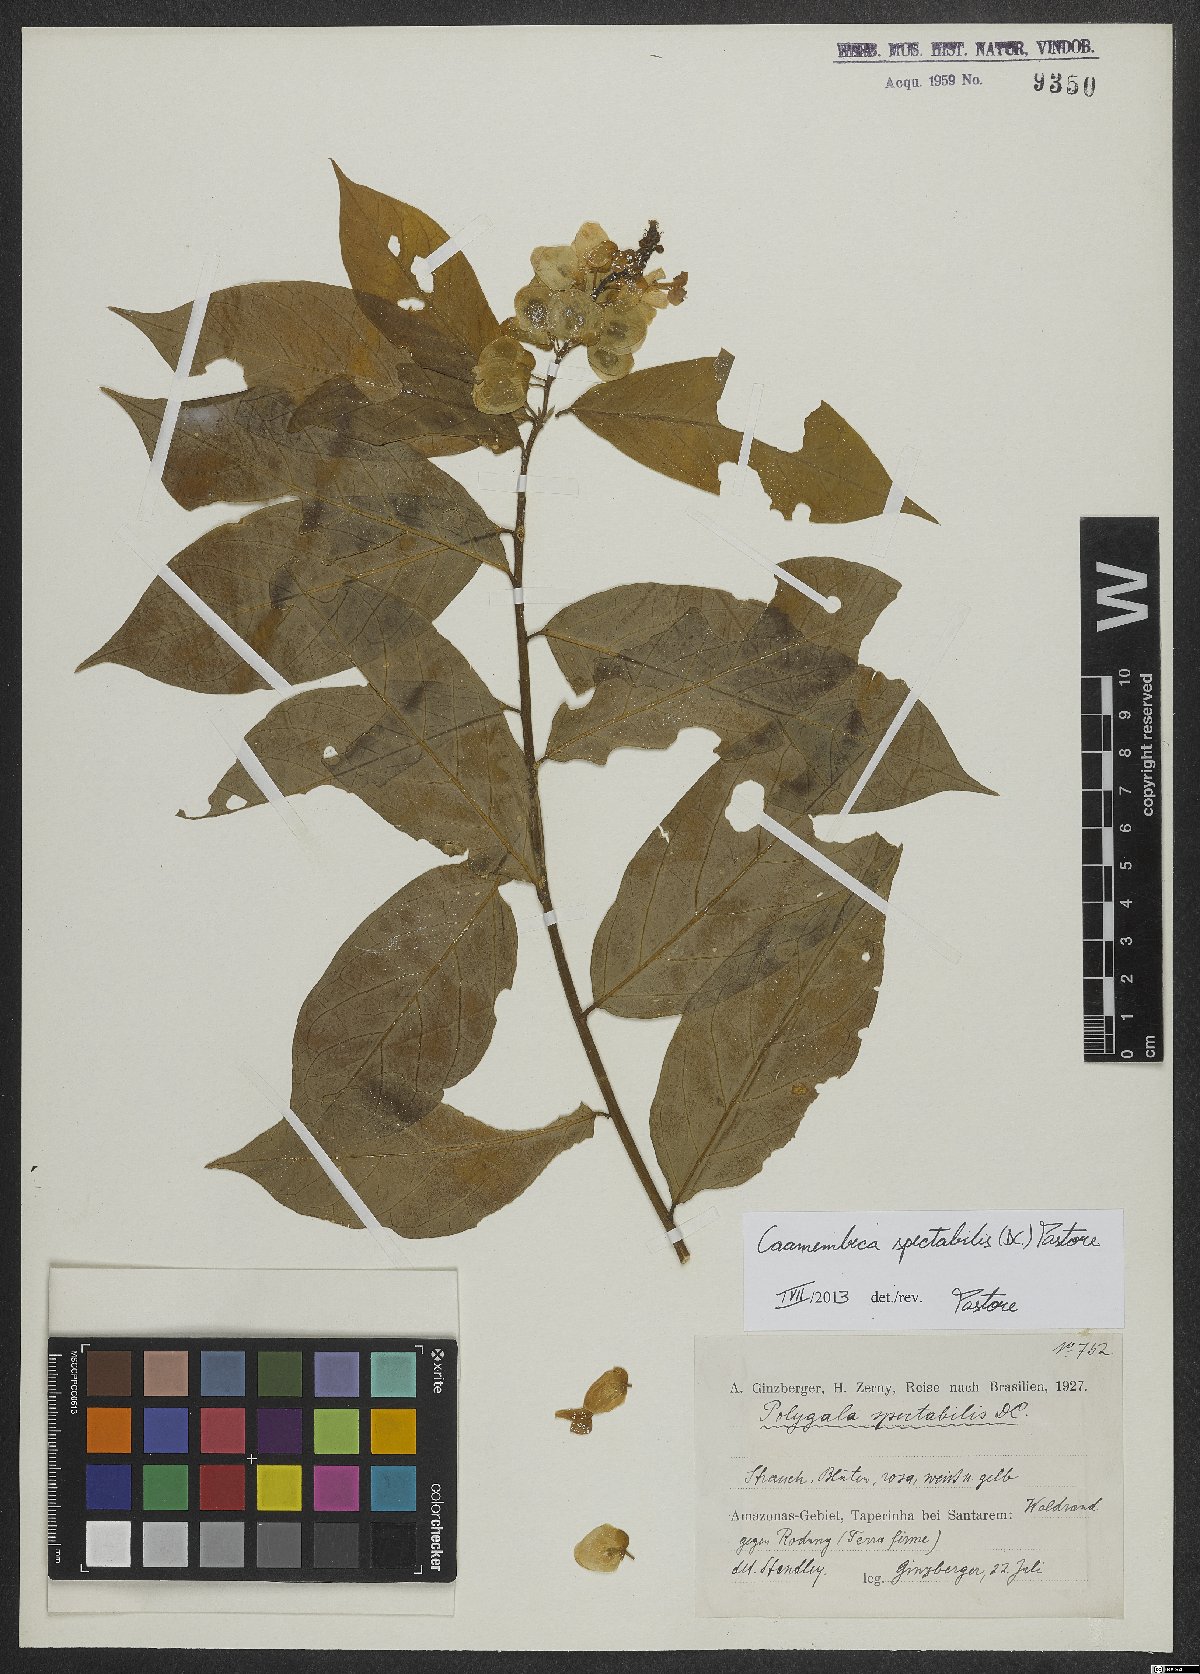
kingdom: Plantae
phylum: Tracheophyta
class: Magnoliopsida
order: Fabales
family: Polygalaceae
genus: Caamembeca
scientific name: Caamembeca spectabilis
